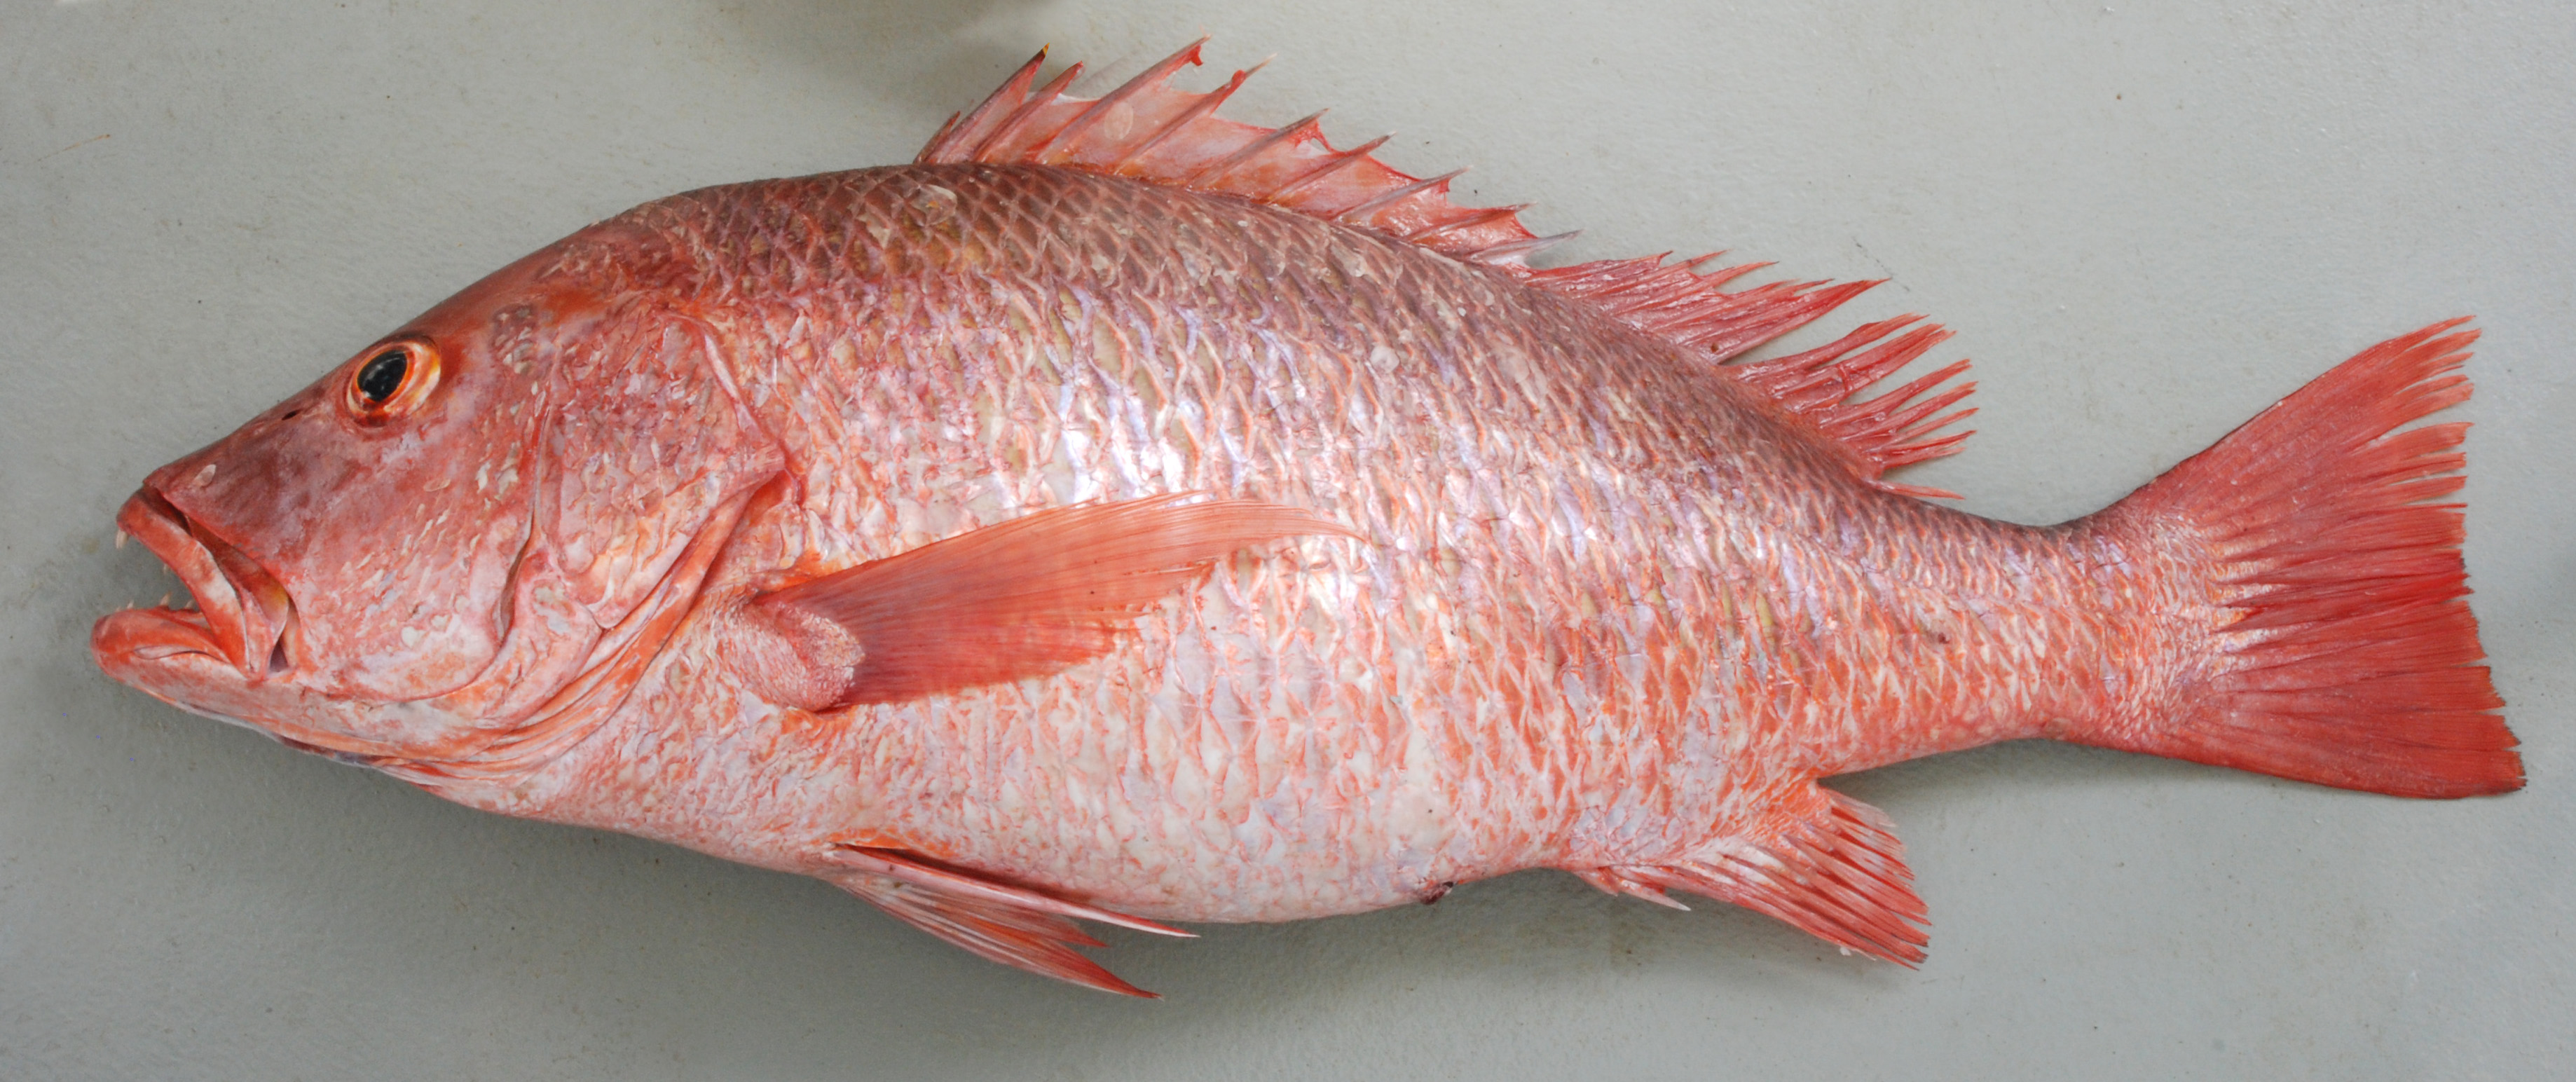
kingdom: Animalia
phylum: Chordata
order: Perciformes
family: Lutjanidae
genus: Lutjanus
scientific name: Lutjanus argentimaculatus
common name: Mangrove red snapper
